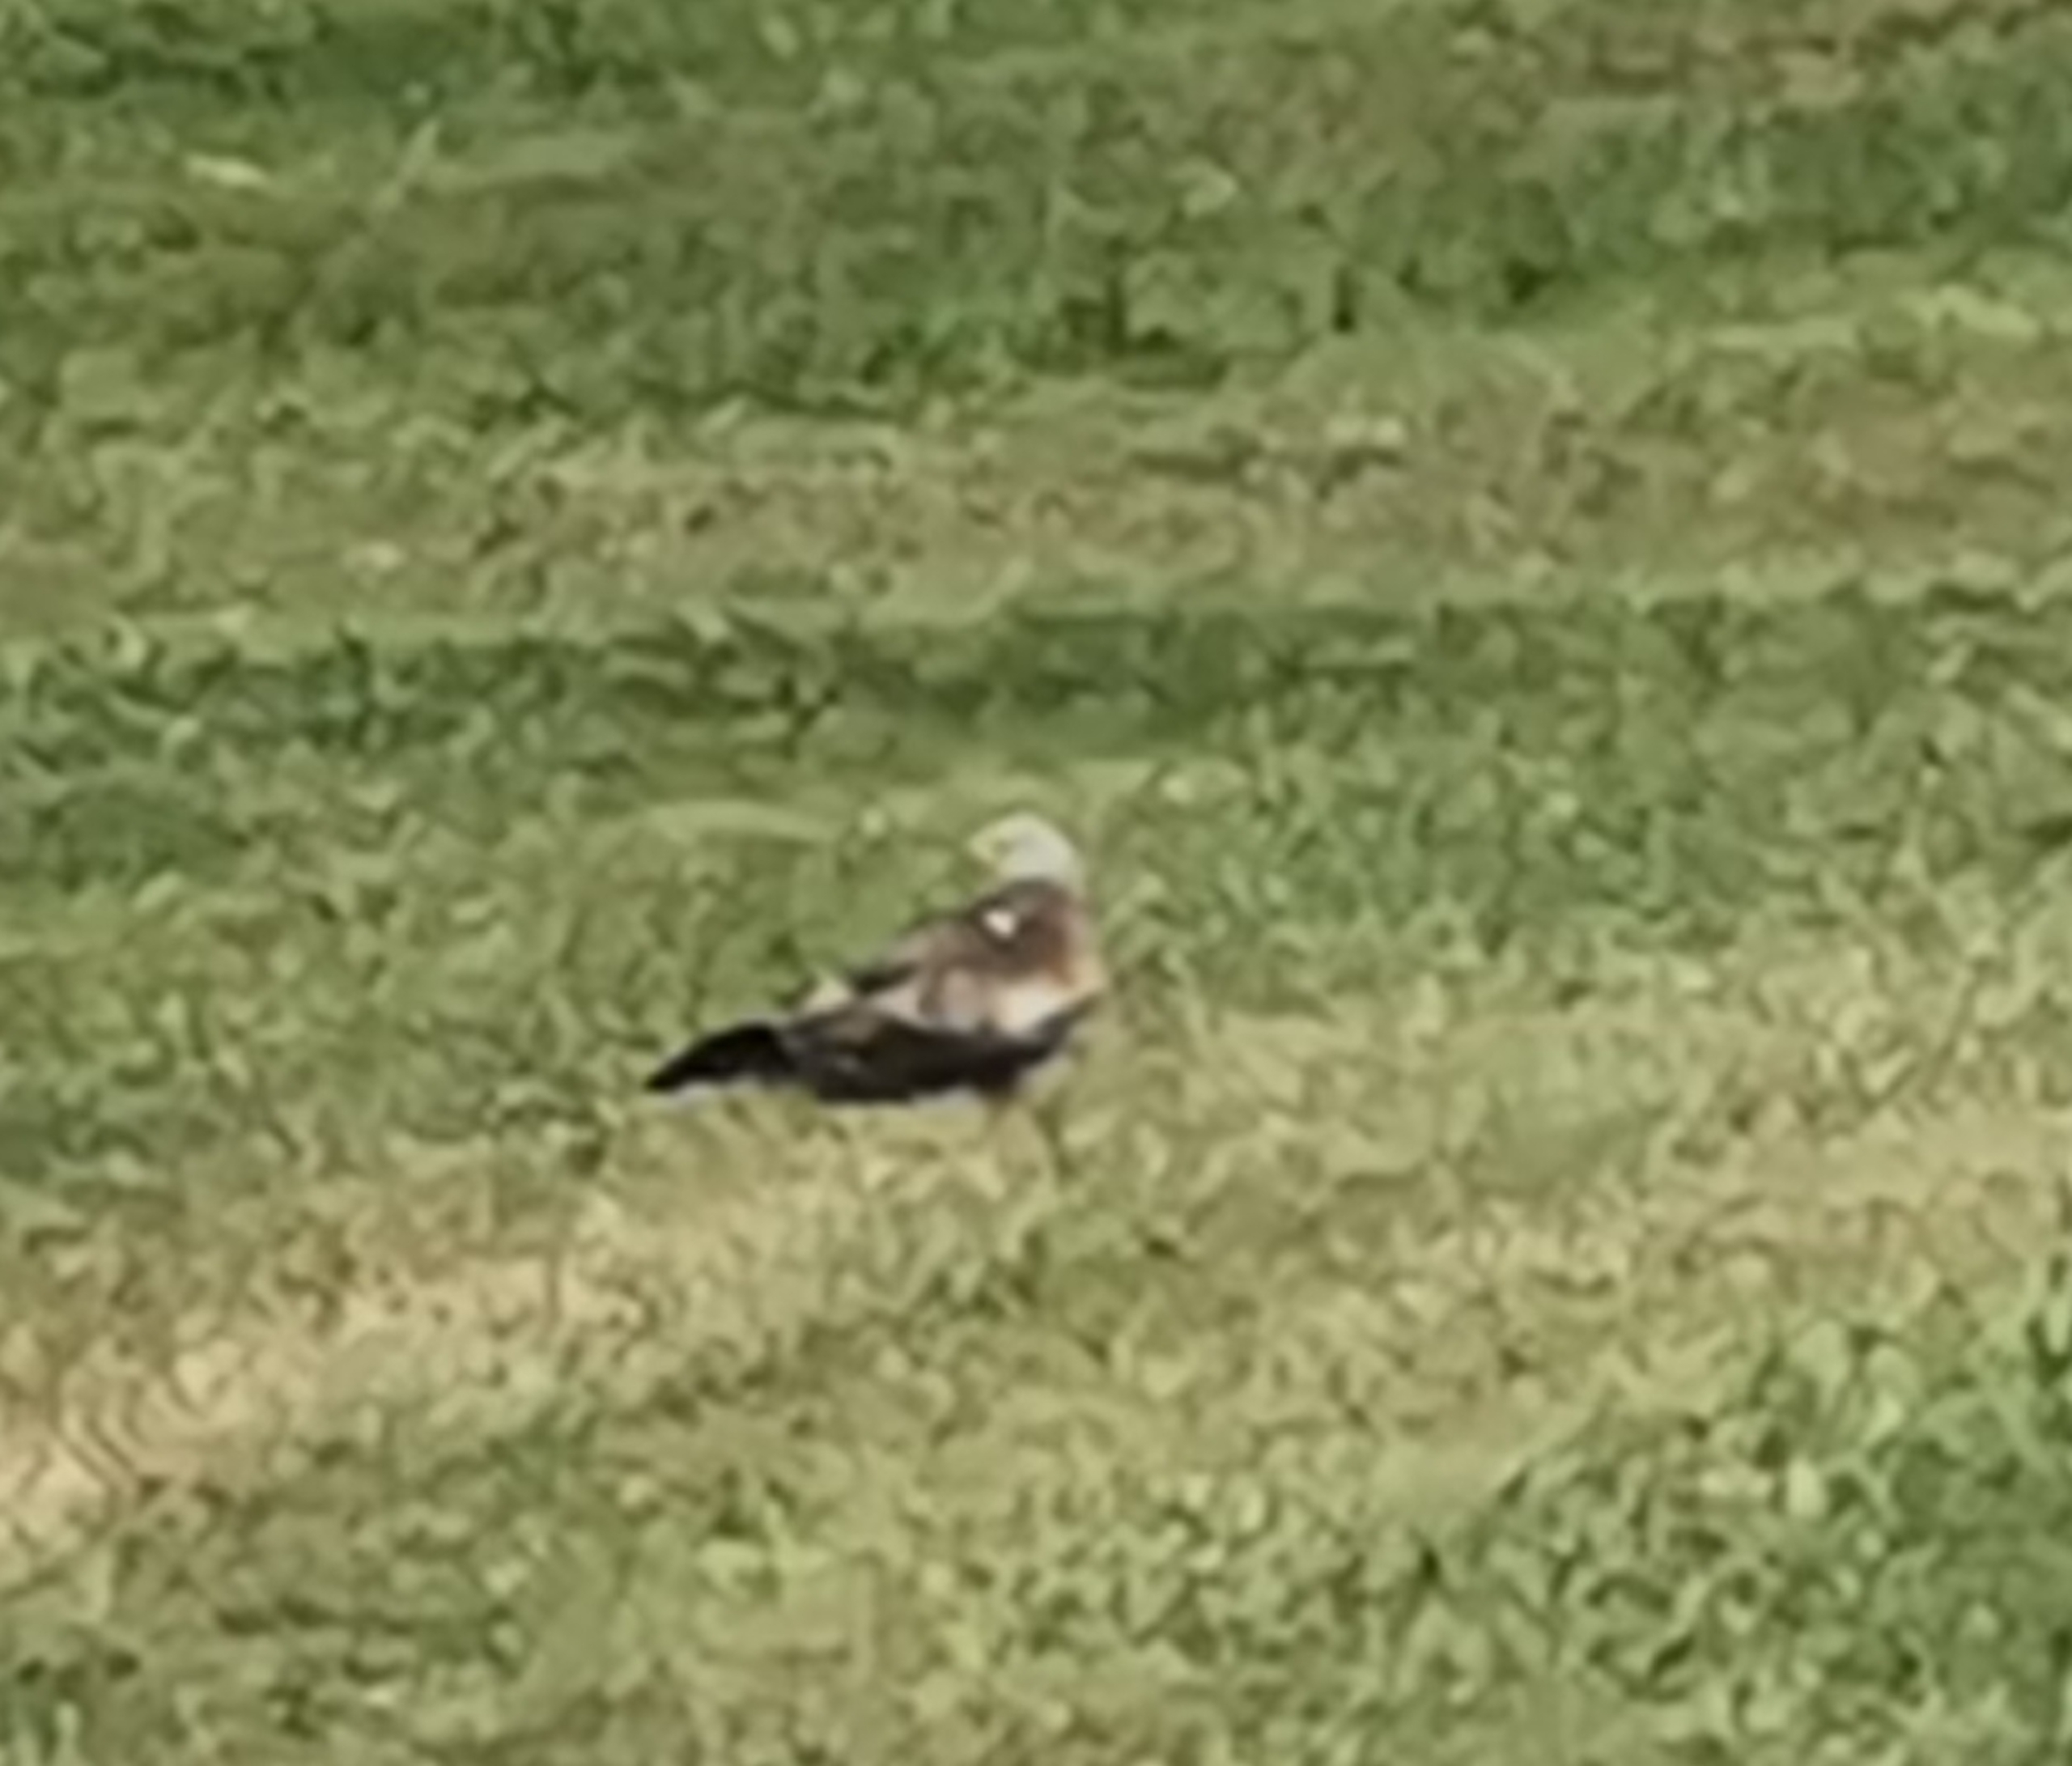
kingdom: Animalia
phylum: Chordata
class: Aves
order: Accipitriformes
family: Accipitridae
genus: Milvus
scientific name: Milvus milvus
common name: Rød glente
